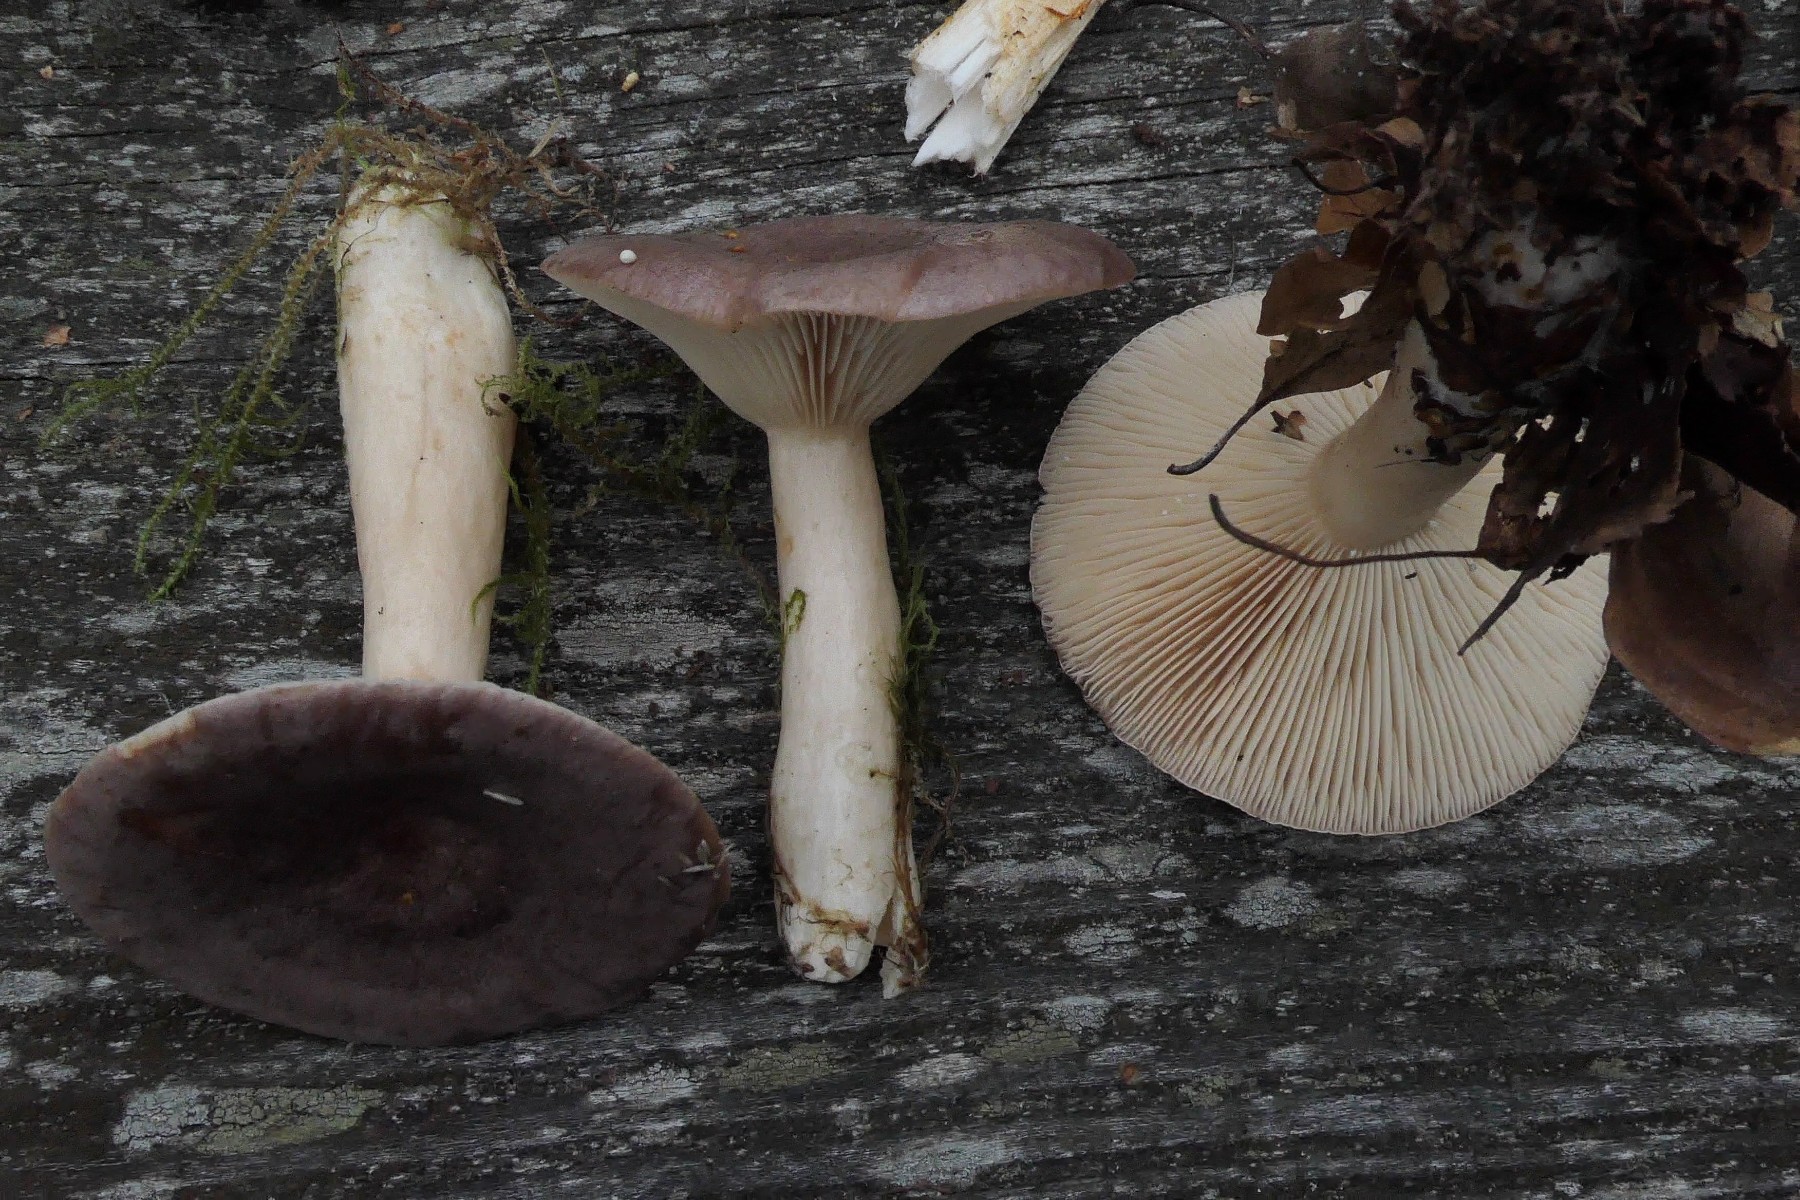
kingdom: Fungi
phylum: Basidiomycota
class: Agaricomycetes
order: Russulales
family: Russulaceae
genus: Lactarius
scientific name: Lactarius trivialis
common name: nordisk mælkehat
